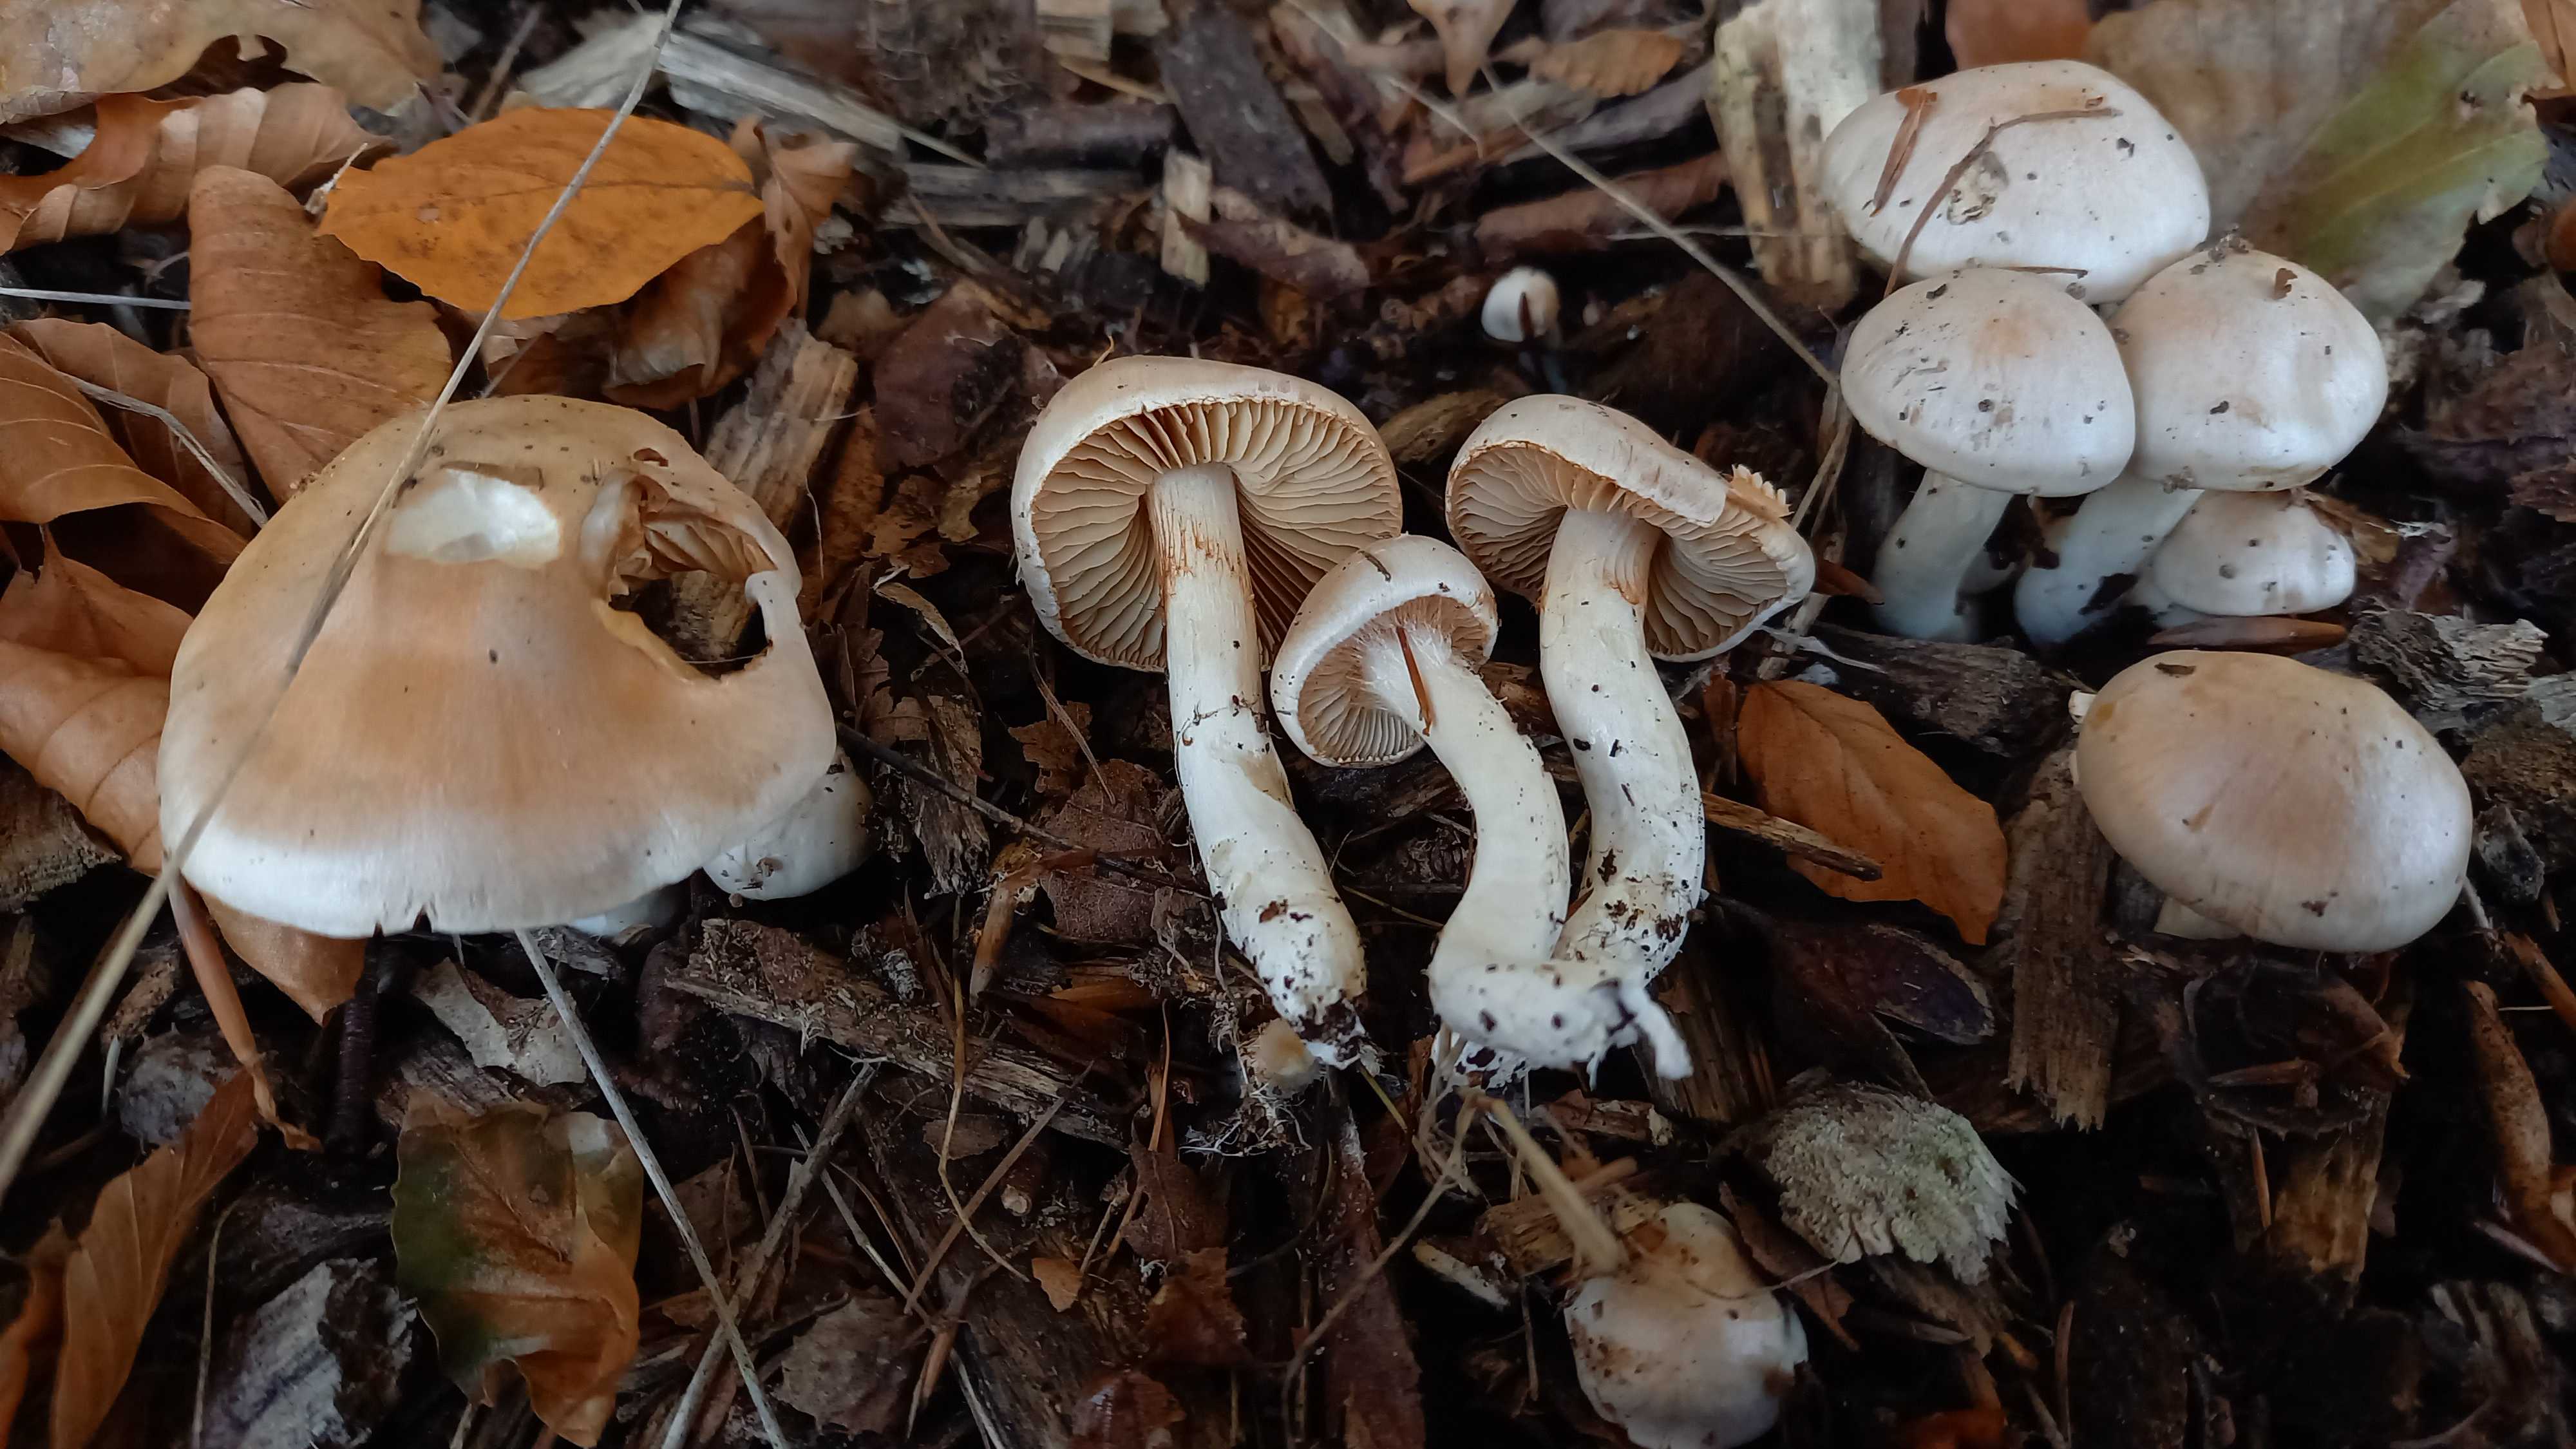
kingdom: Fungi
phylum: Basidiomycota
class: Agaricomycetes
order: Agaricales
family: Cortinariaceae
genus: Thaxterogaster
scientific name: Thaxterogaster leucoluteolus
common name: isabella slørhat
